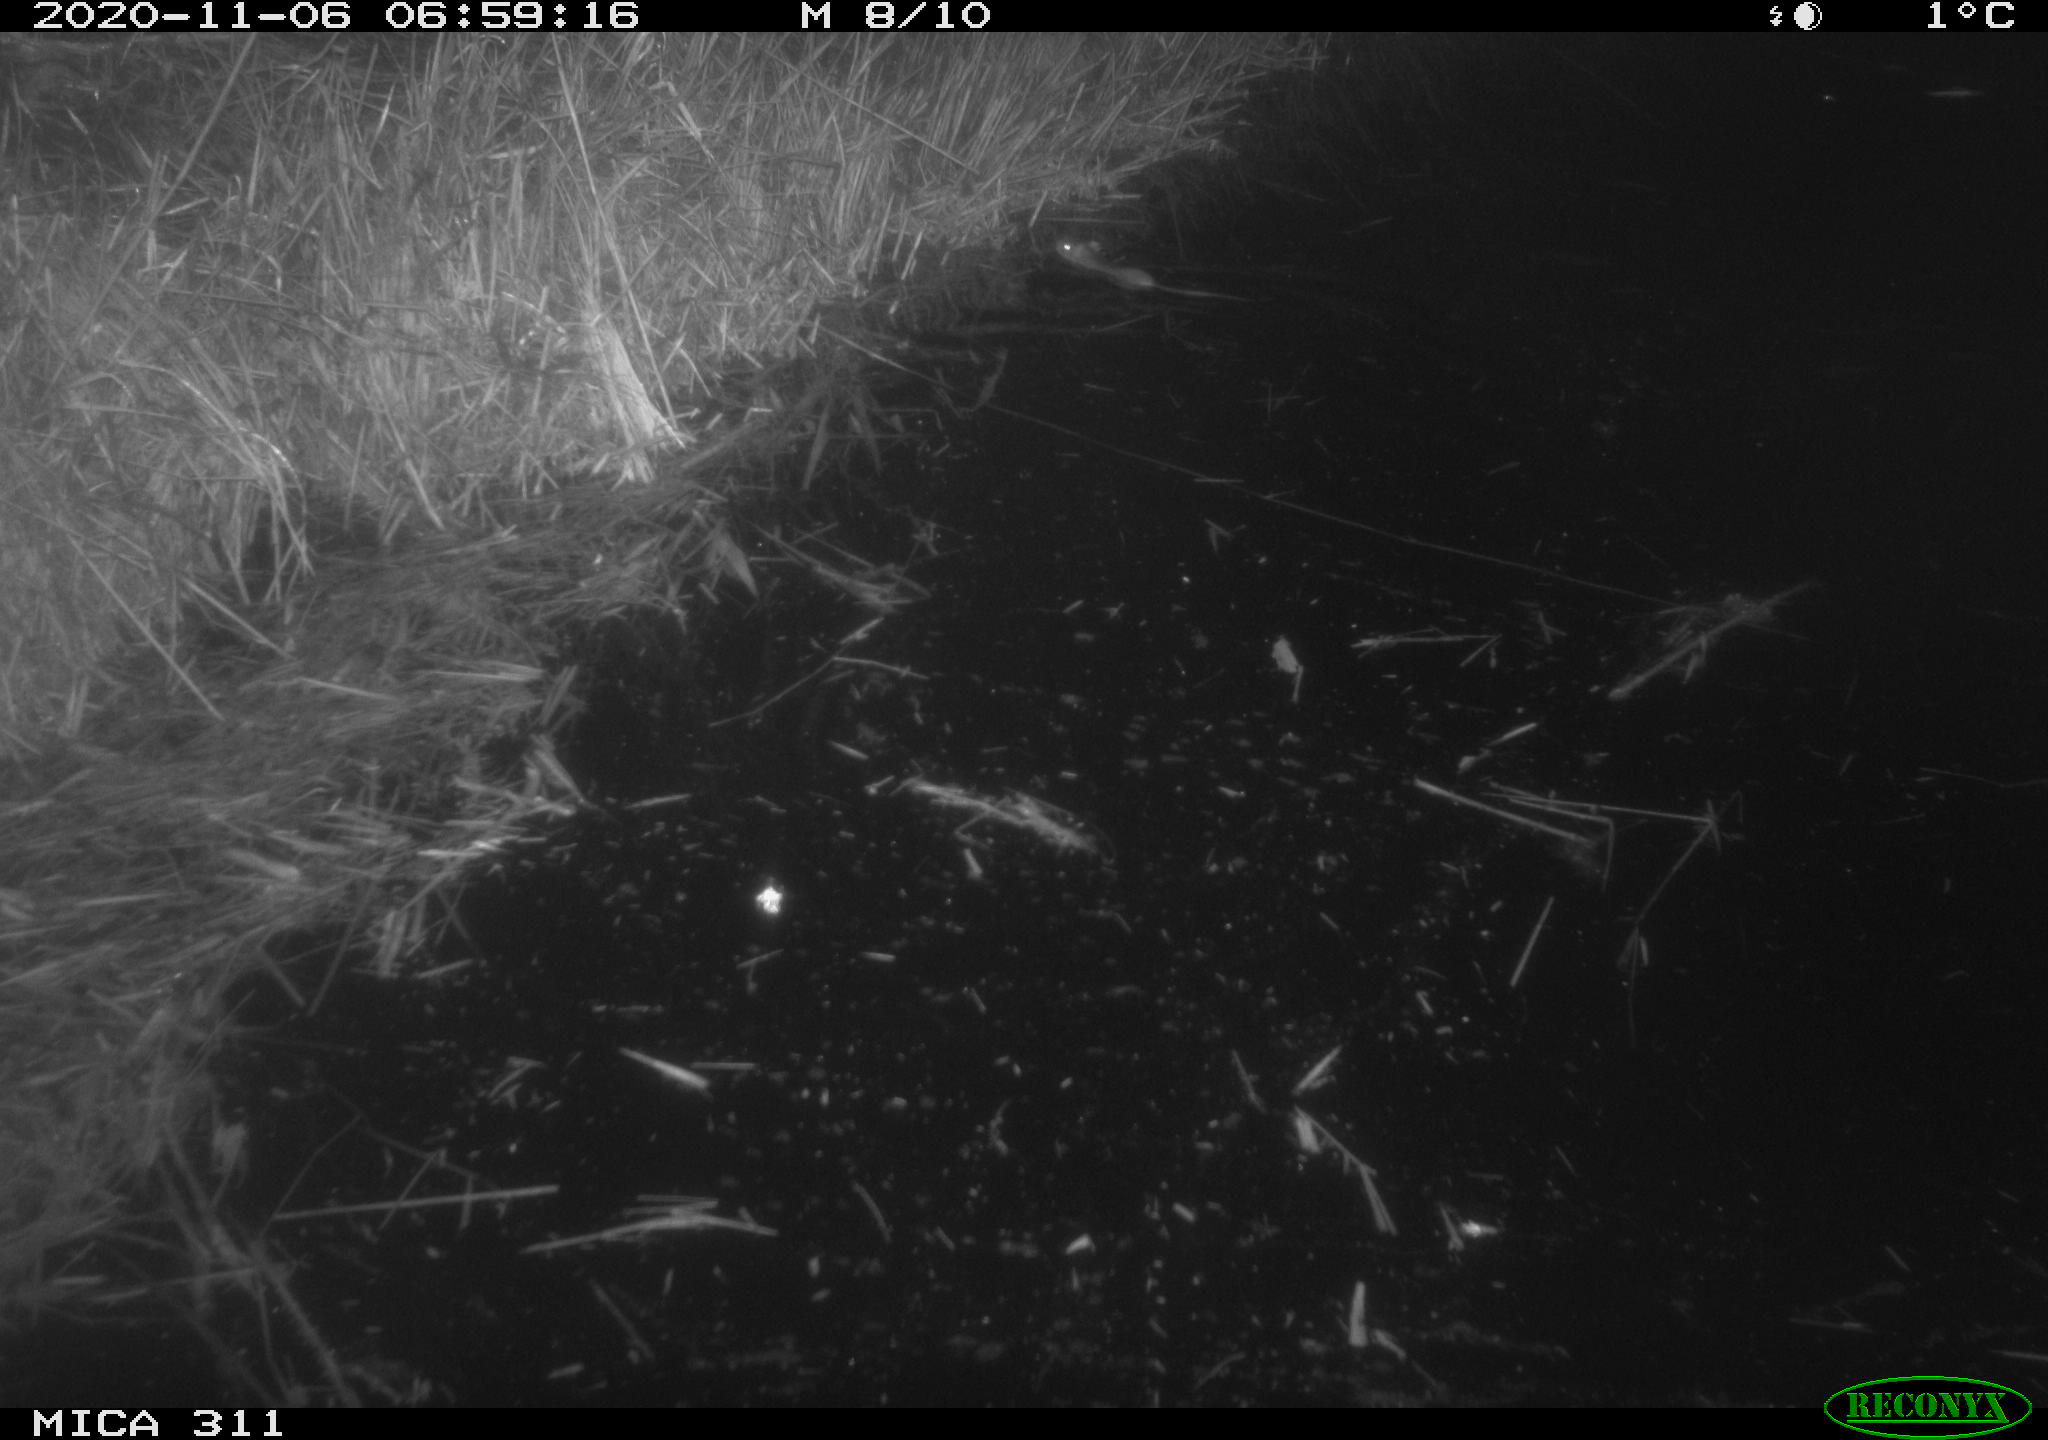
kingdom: Animalia
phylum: Chordata
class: Mammalia
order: Rodentia
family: Muridae
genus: Rattus
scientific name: Rattus norvegicus
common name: Brown rat
